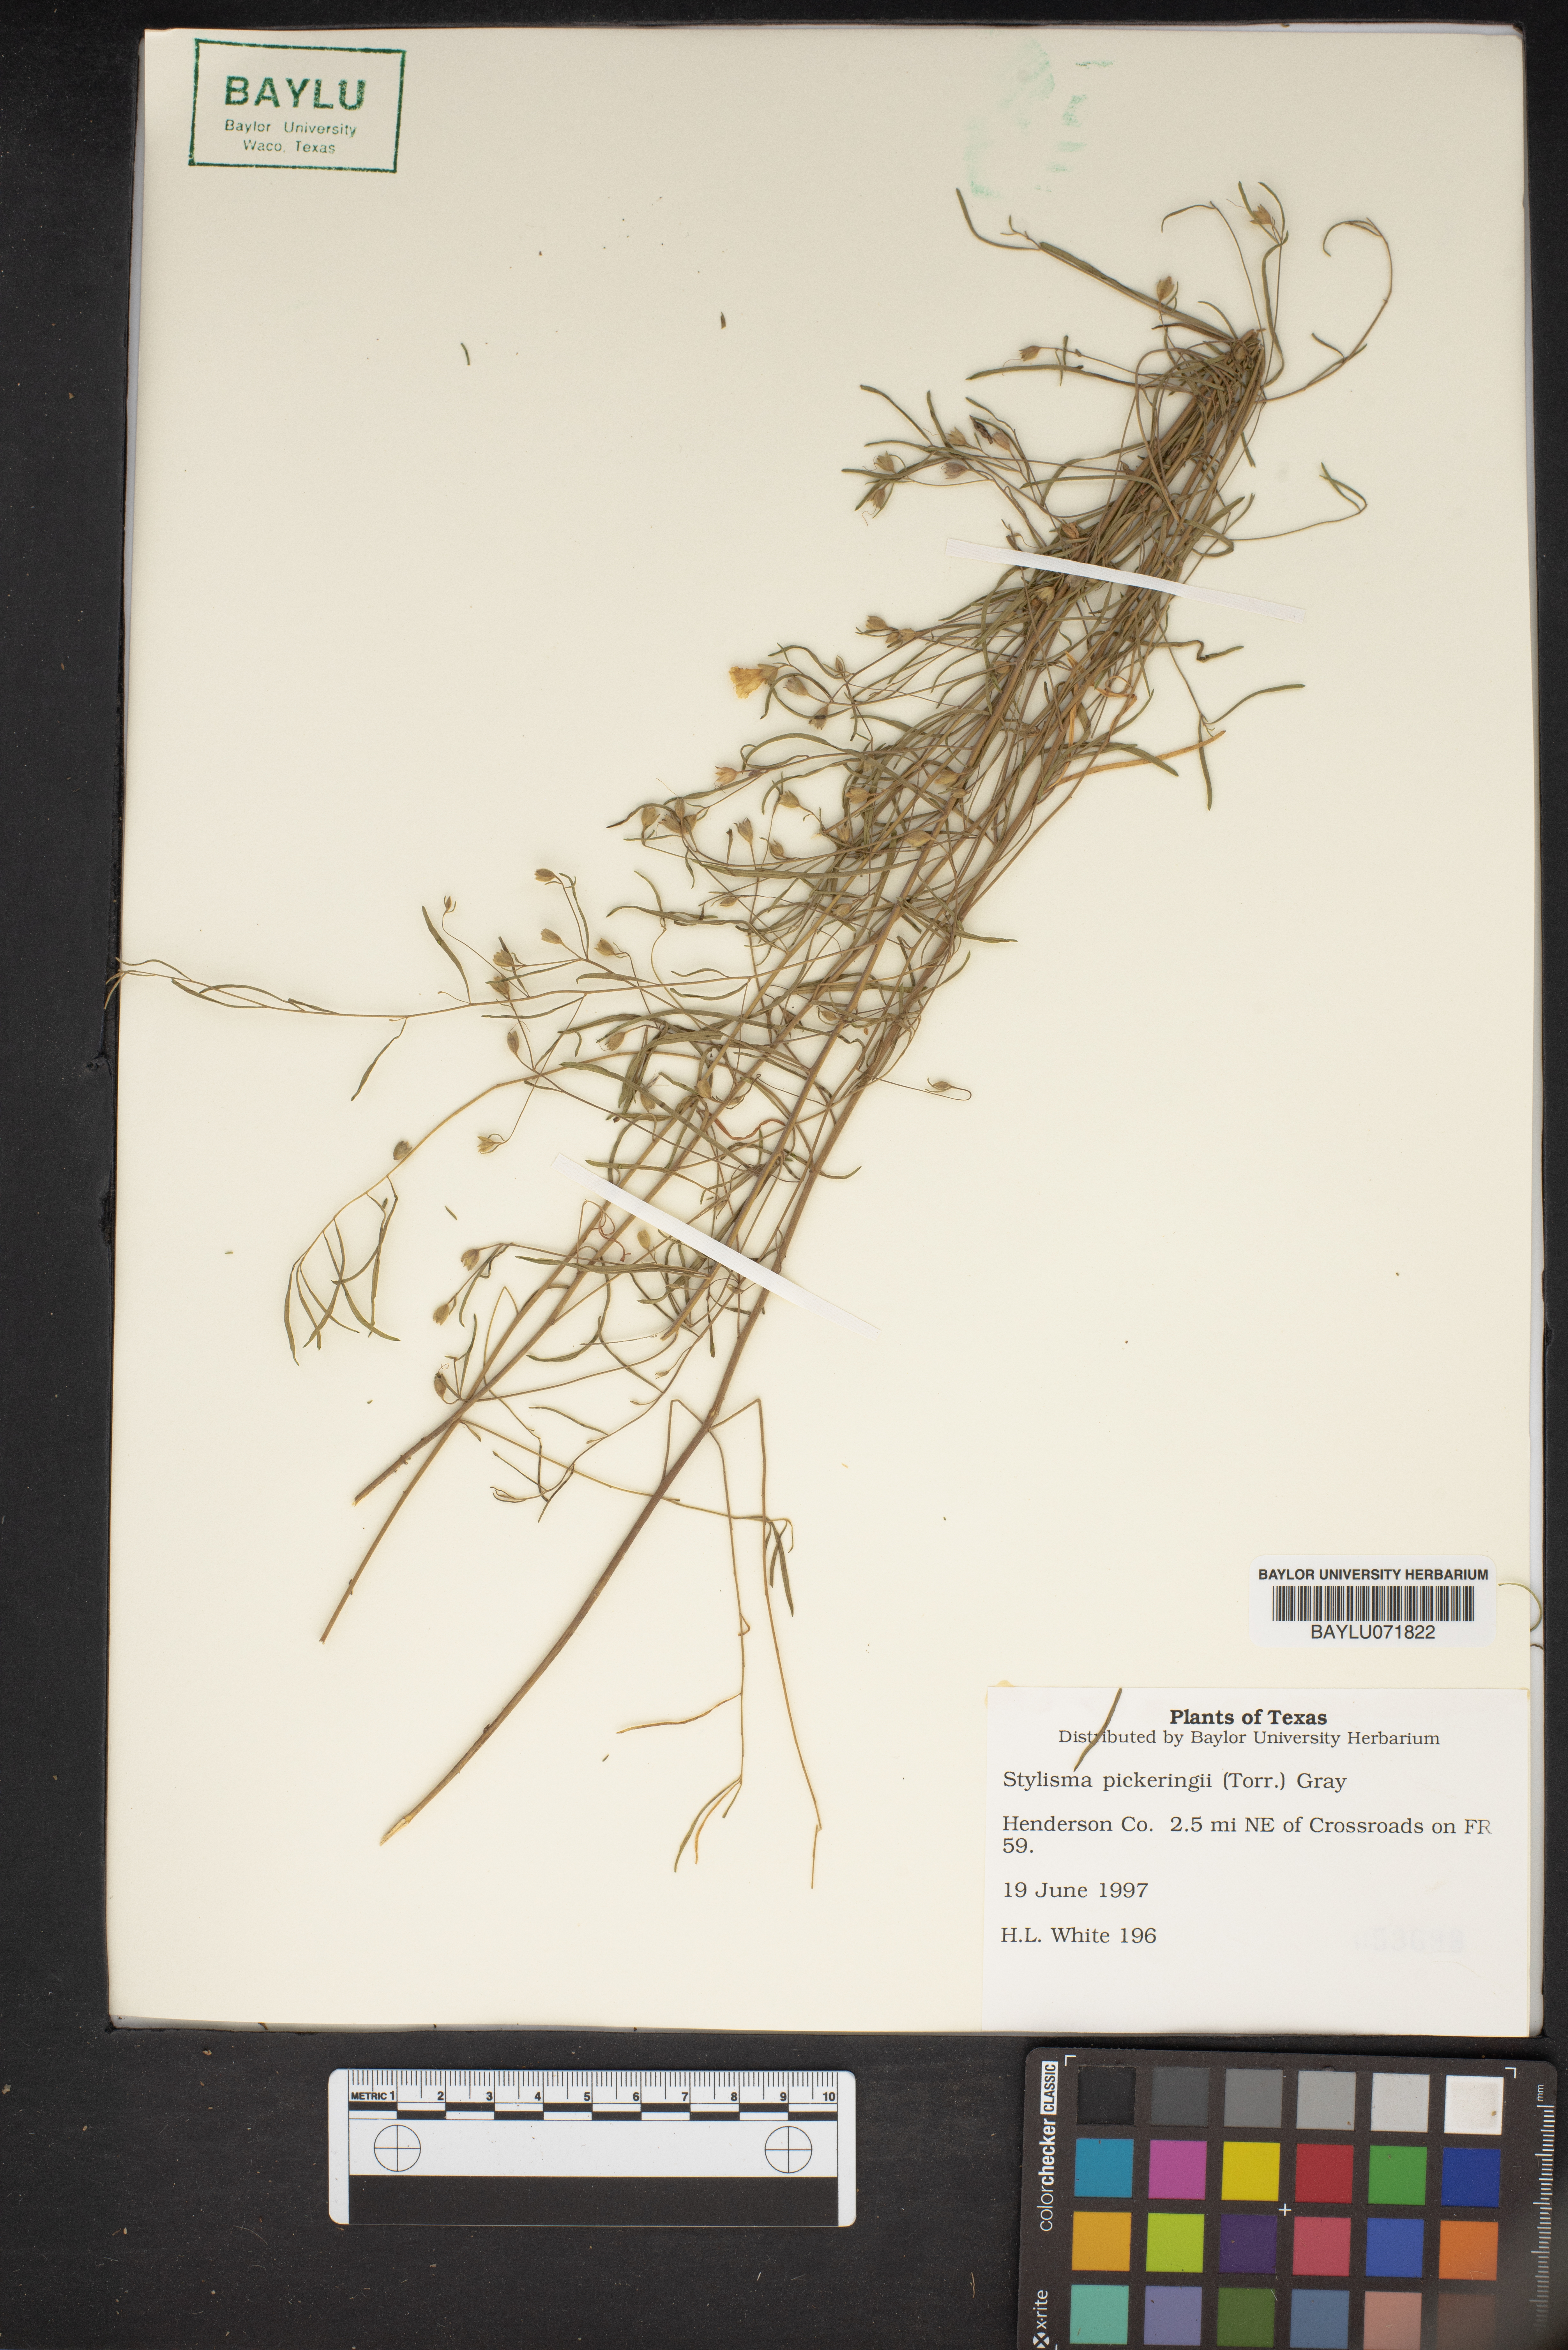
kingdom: Plantae
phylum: Tracheophyta
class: Magnoliopsida
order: Solanales
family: Convolvulaceae
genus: Stylisma
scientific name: Stylisma pickeringii
